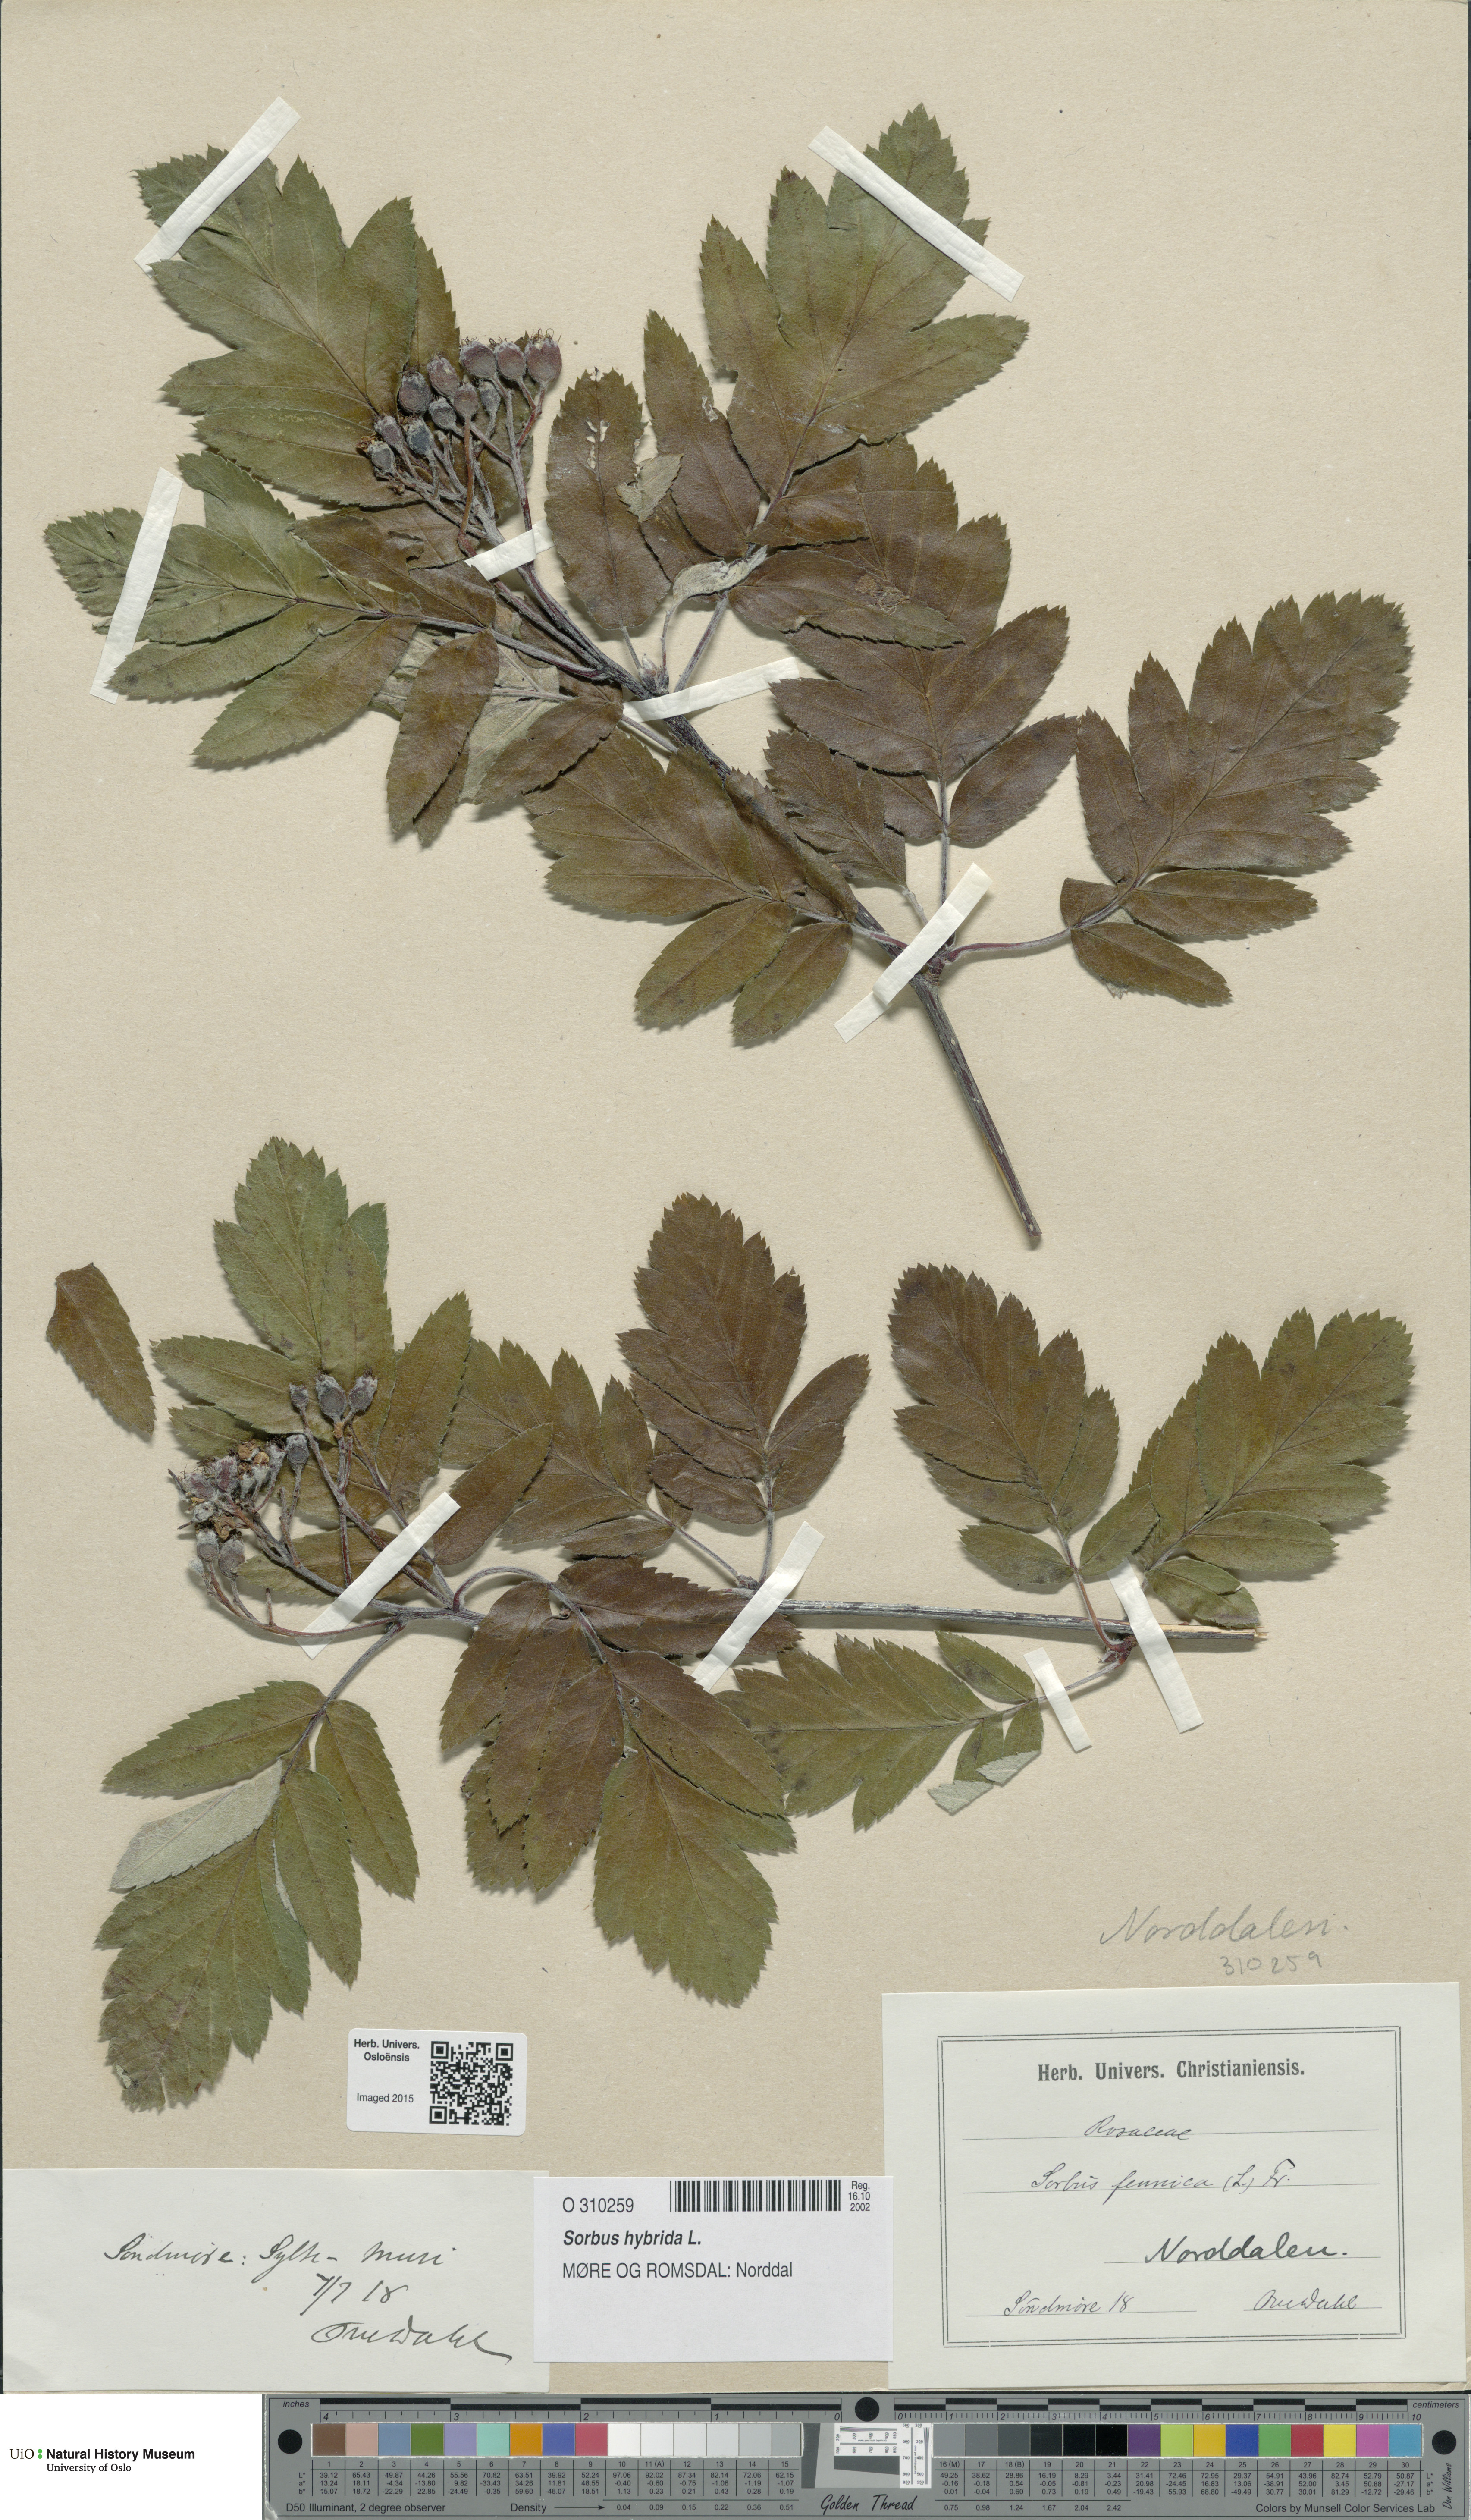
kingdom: Plantae
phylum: Tracheophyta
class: Magnoliopsida
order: Rosales
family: Rosaceae
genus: Hedlundia
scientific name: Hedlundia hybrida
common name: Swedish service-tree
